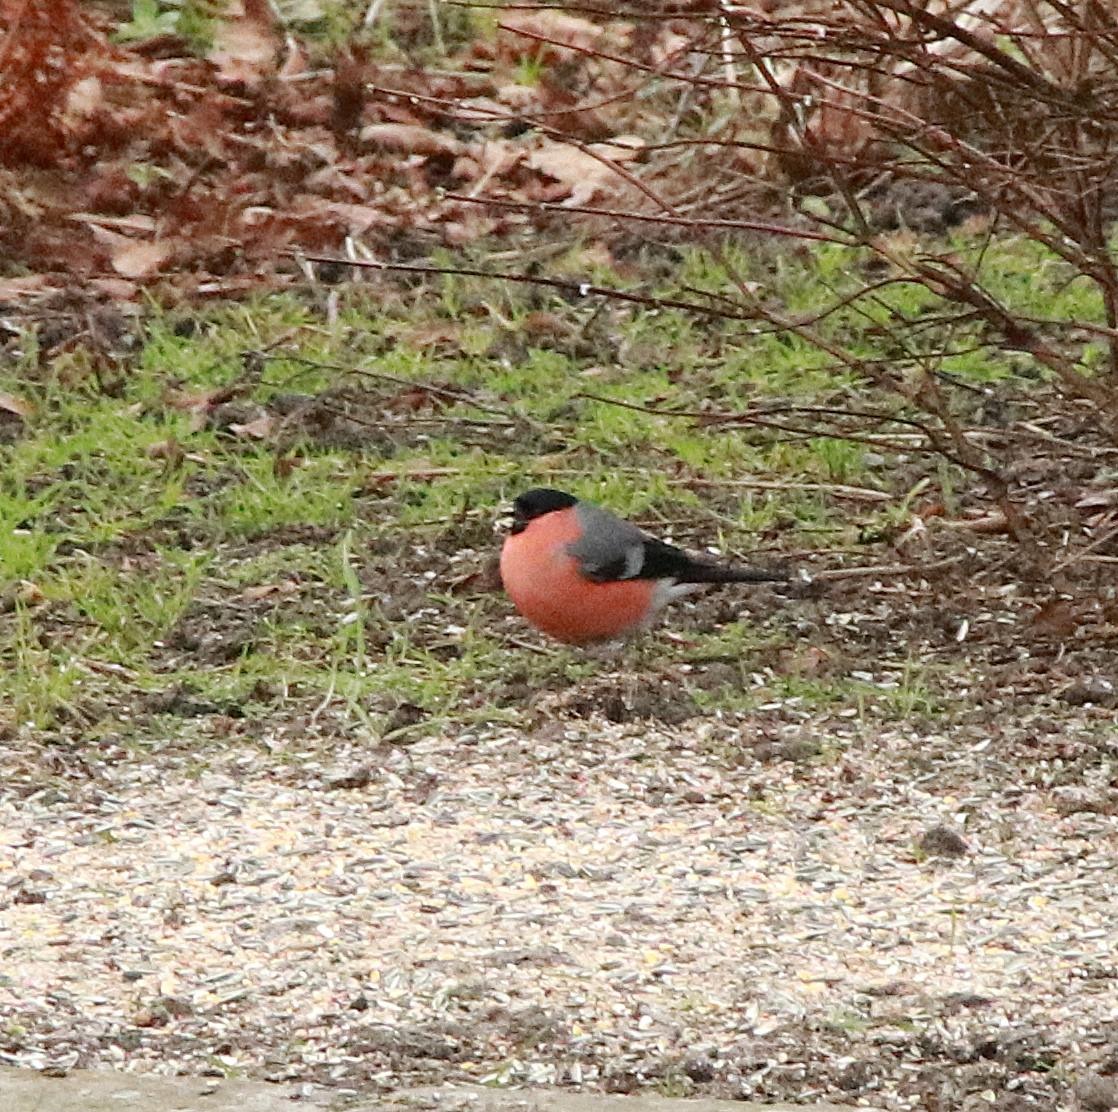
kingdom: Animalia
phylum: Chordata
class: Aves
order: Passeriformes
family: Fringillidae
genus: Pyrrhula
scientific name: Pyrrhula pyrrhula
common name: Dompap
